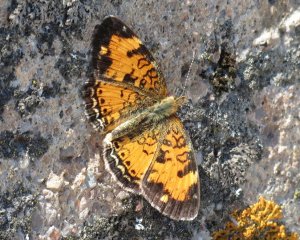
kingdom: Animalia
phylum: Arthropoda
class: Insecta
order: Lepidoptera
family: Nymphalidae
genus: Phyciodes
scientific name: Phyciodes tharos
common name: Northern Crescent
